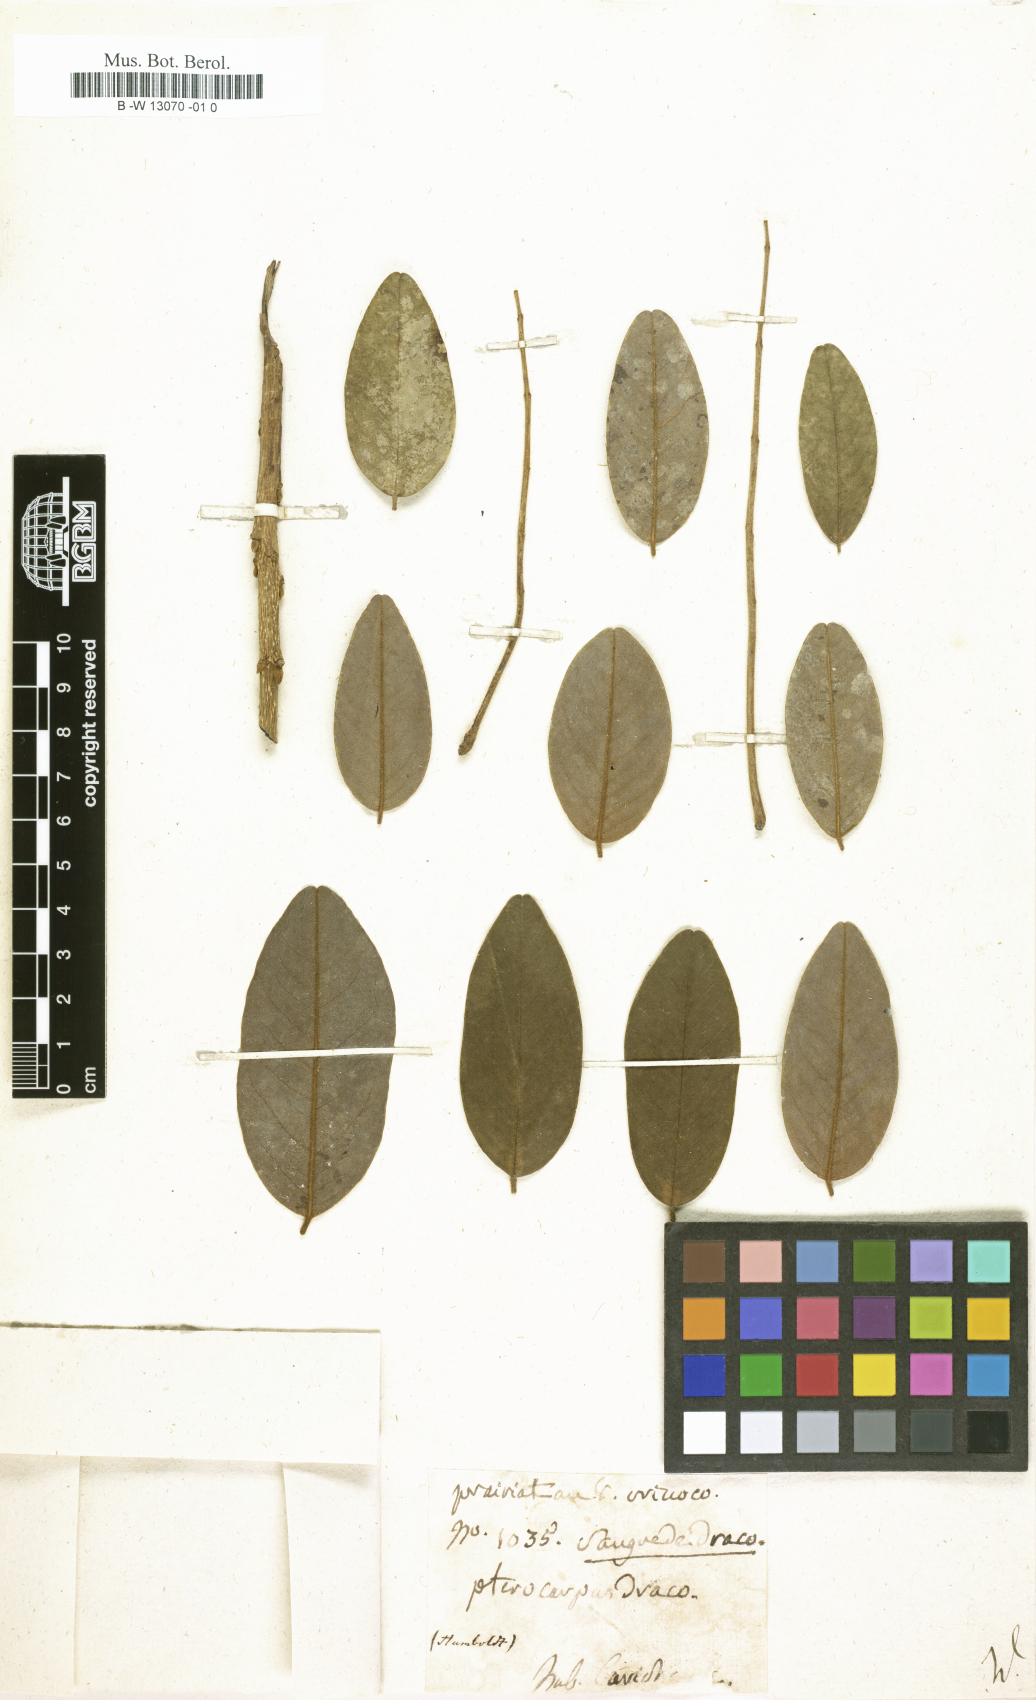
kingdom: Plantae
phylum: Tracheophyta
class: Magnoliopsida
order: Fabales
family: Fabaceae
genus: Pterocarpus
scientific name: Pterocarpus officinalis
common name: Bloodwood
